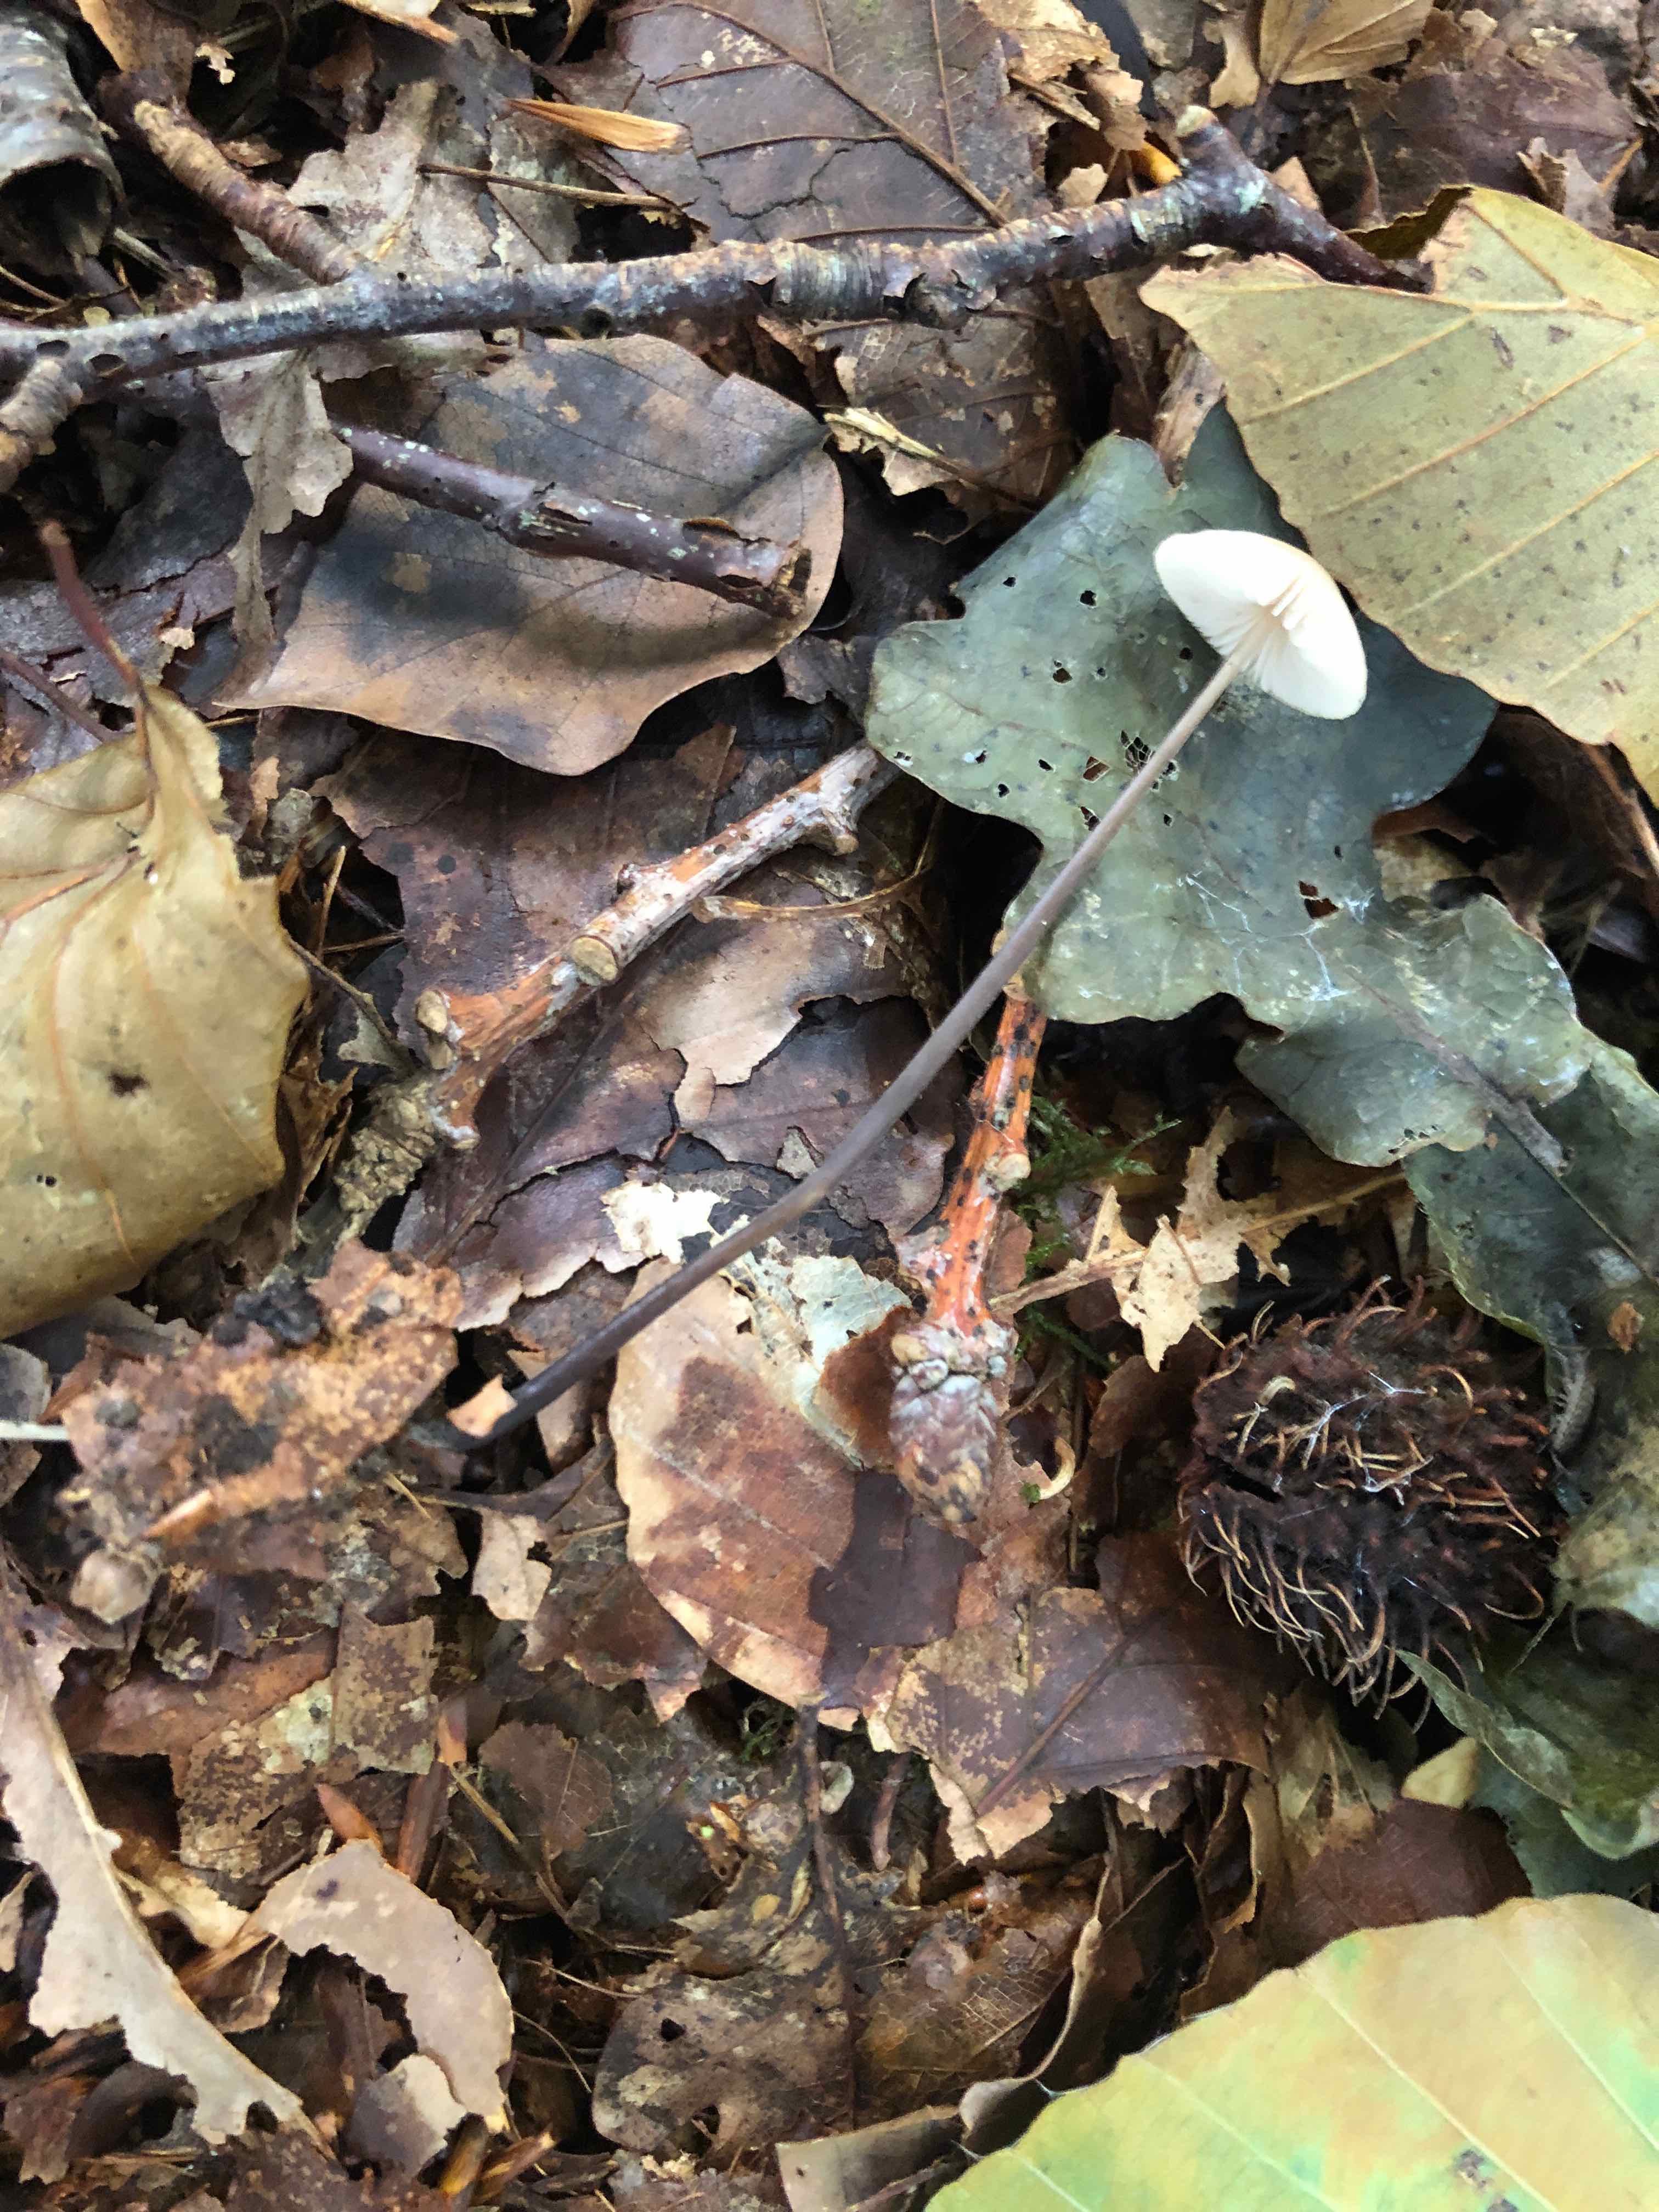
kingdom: Fungi
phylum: Basidiomycota
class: Agaricomycetes
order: Agaricales
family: Omphalotaceae
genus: Mycetinis
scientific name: Mycetinis alliaceus
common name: stor løghat
